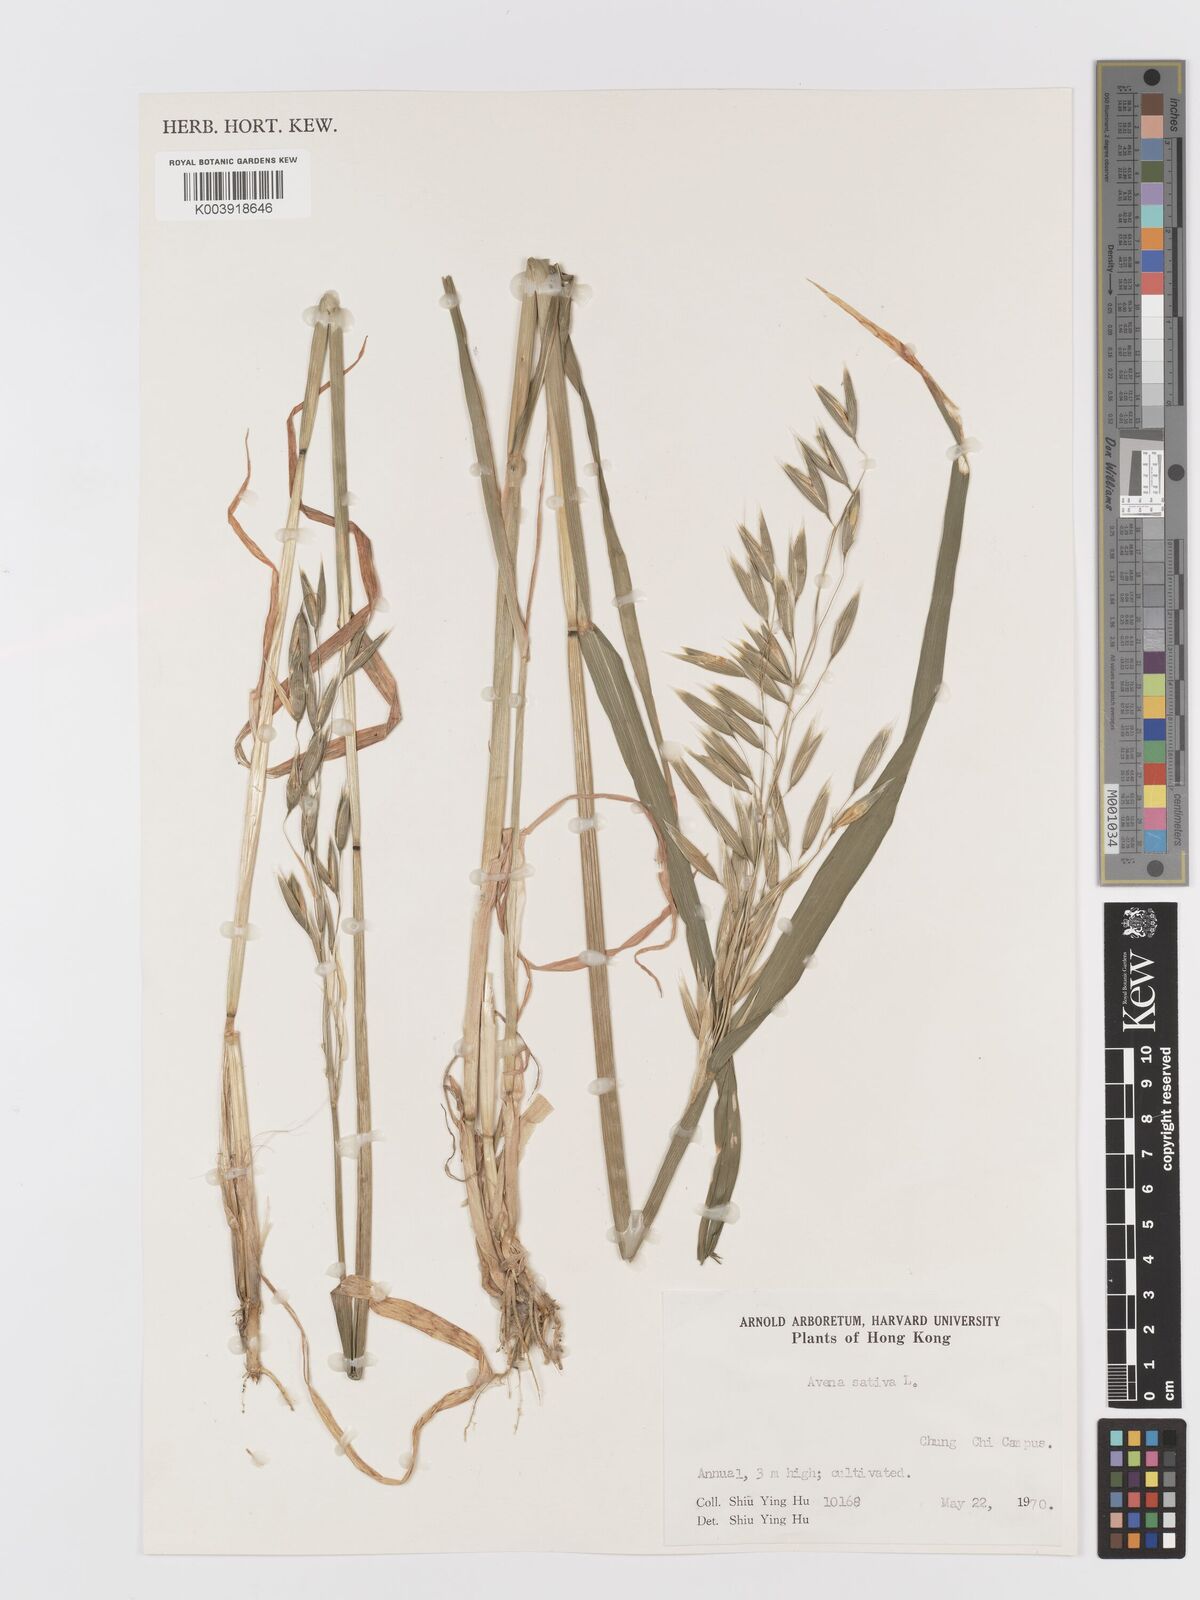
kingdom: Plantae
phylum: Tracheophyta
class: Liliopsida
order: Poales
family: Poaceae
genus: Avena
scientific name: Avena sativa
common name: Oat
